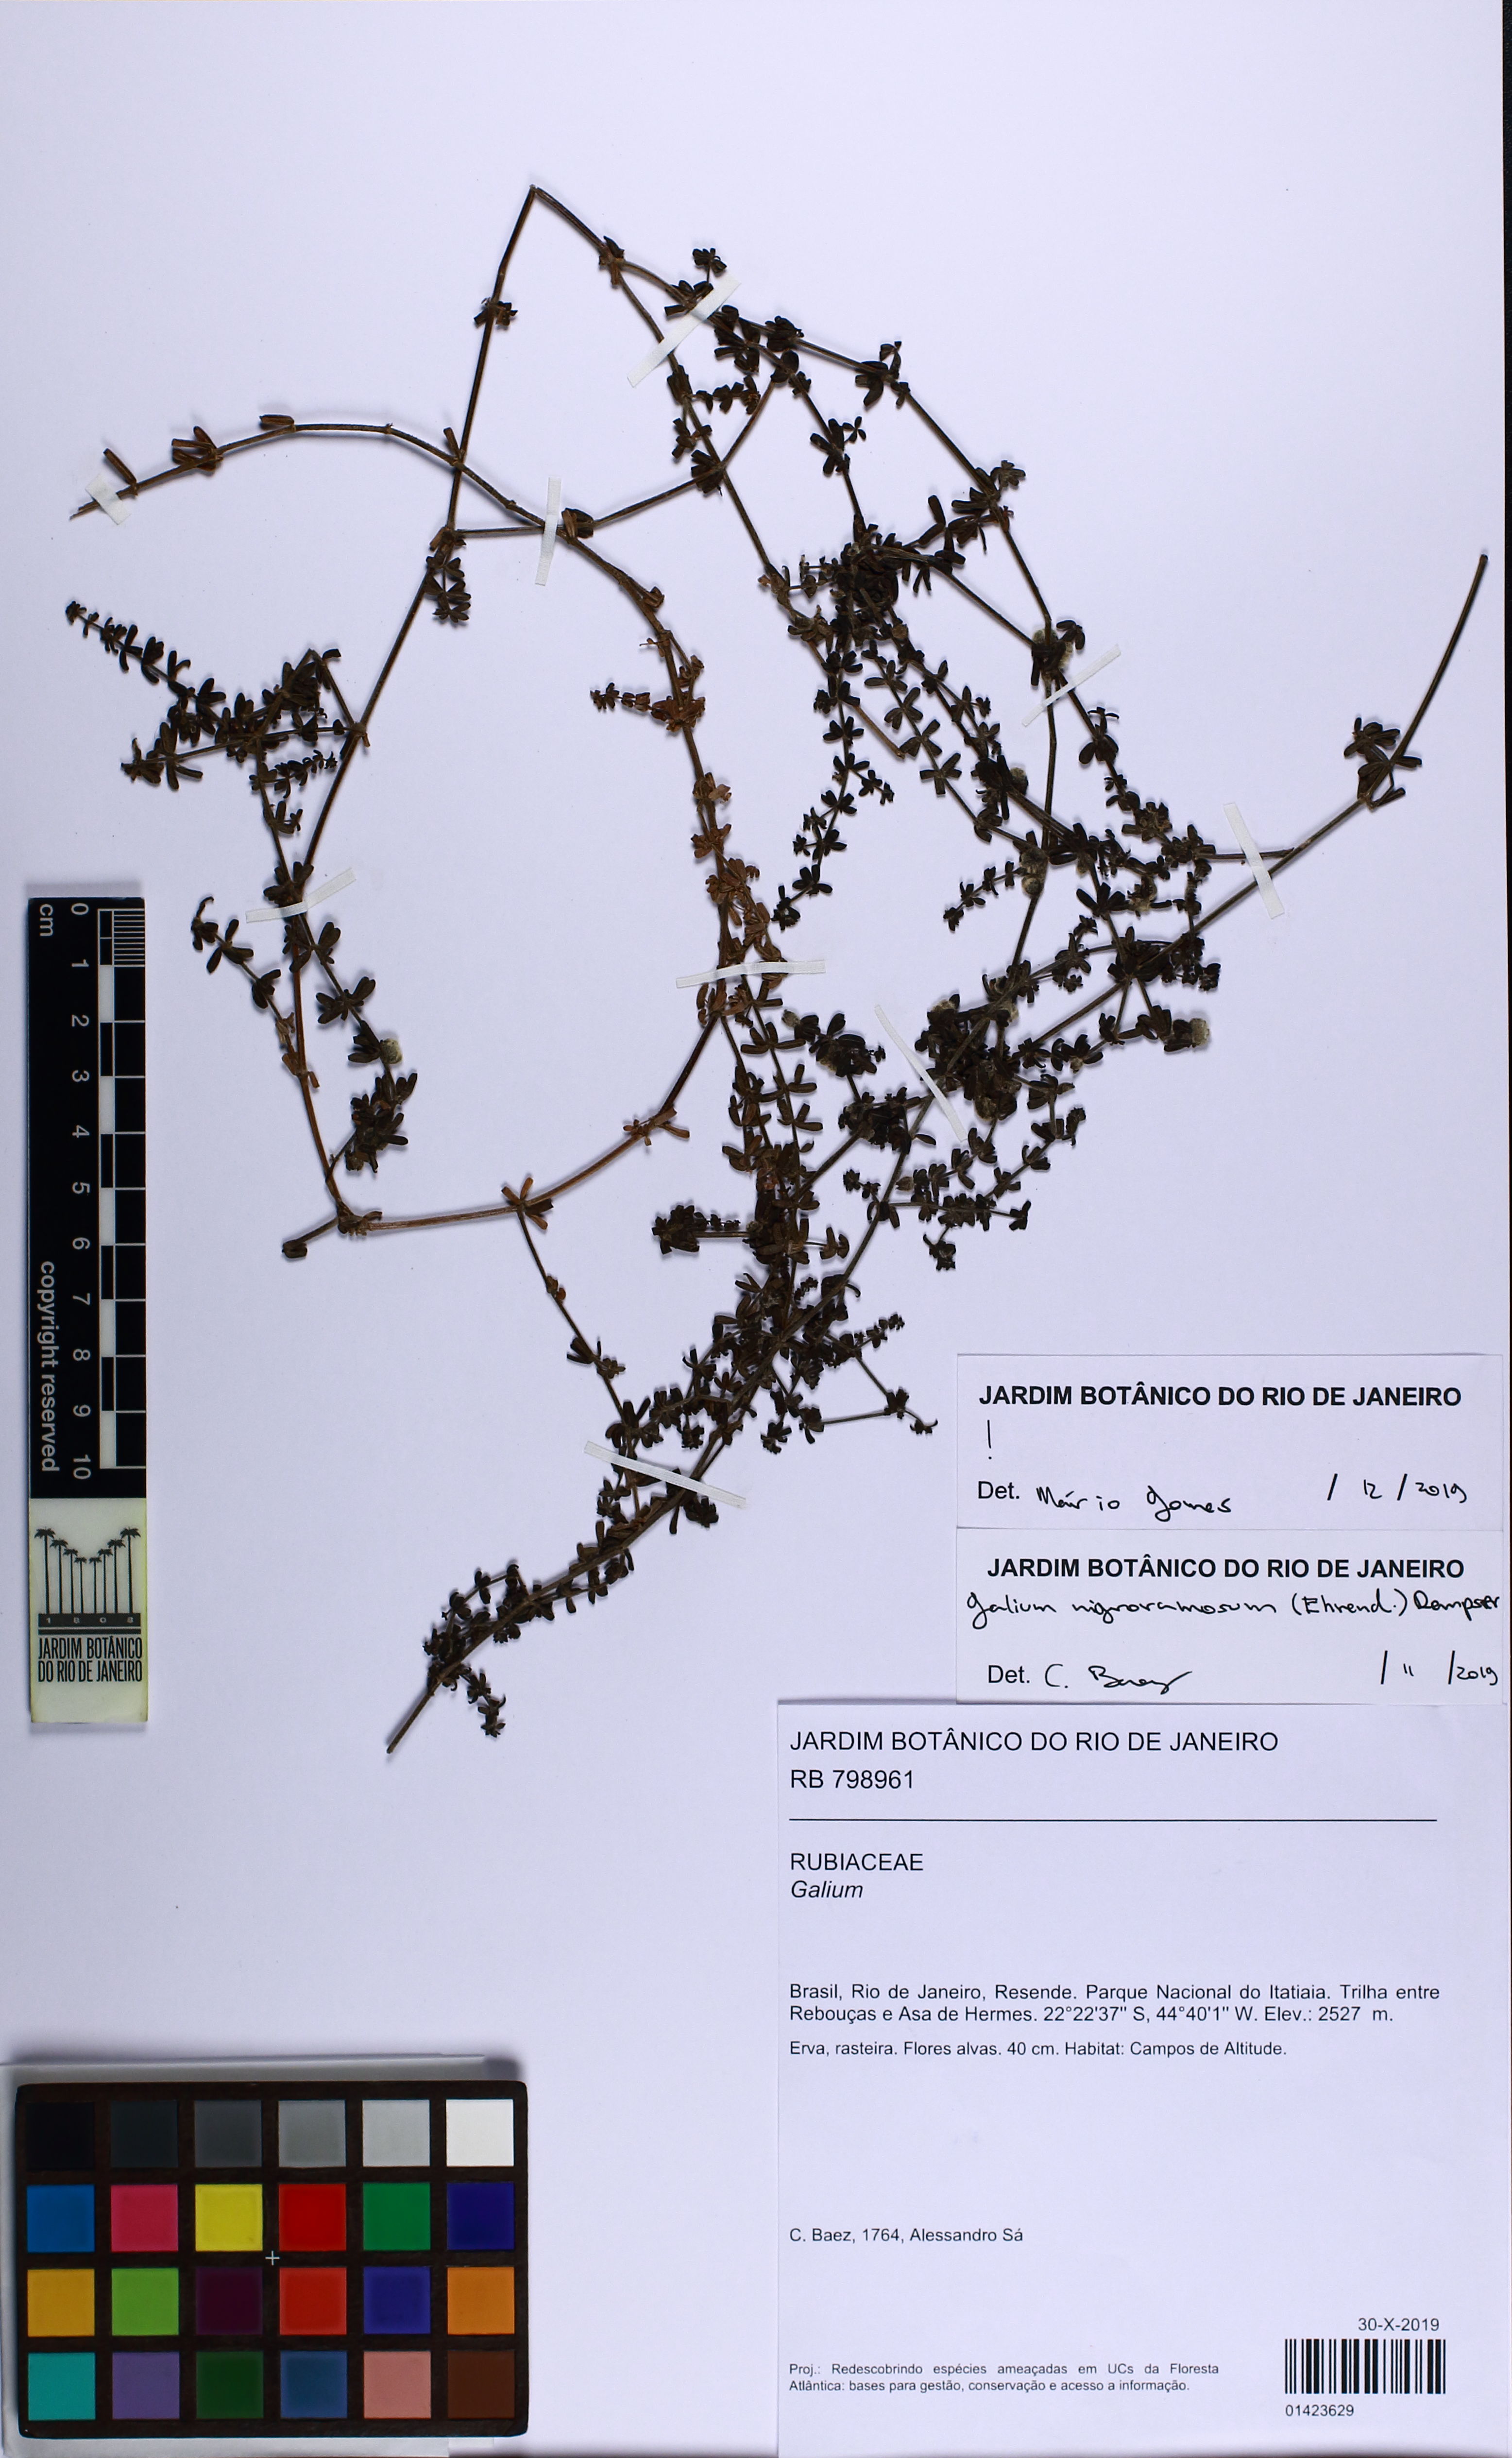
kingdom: Plantae
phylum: Tracheophyta
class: Magnoliopsida
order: Gentianales
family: Rubiaceae
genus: Galium
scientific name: Galium nigroramosum
